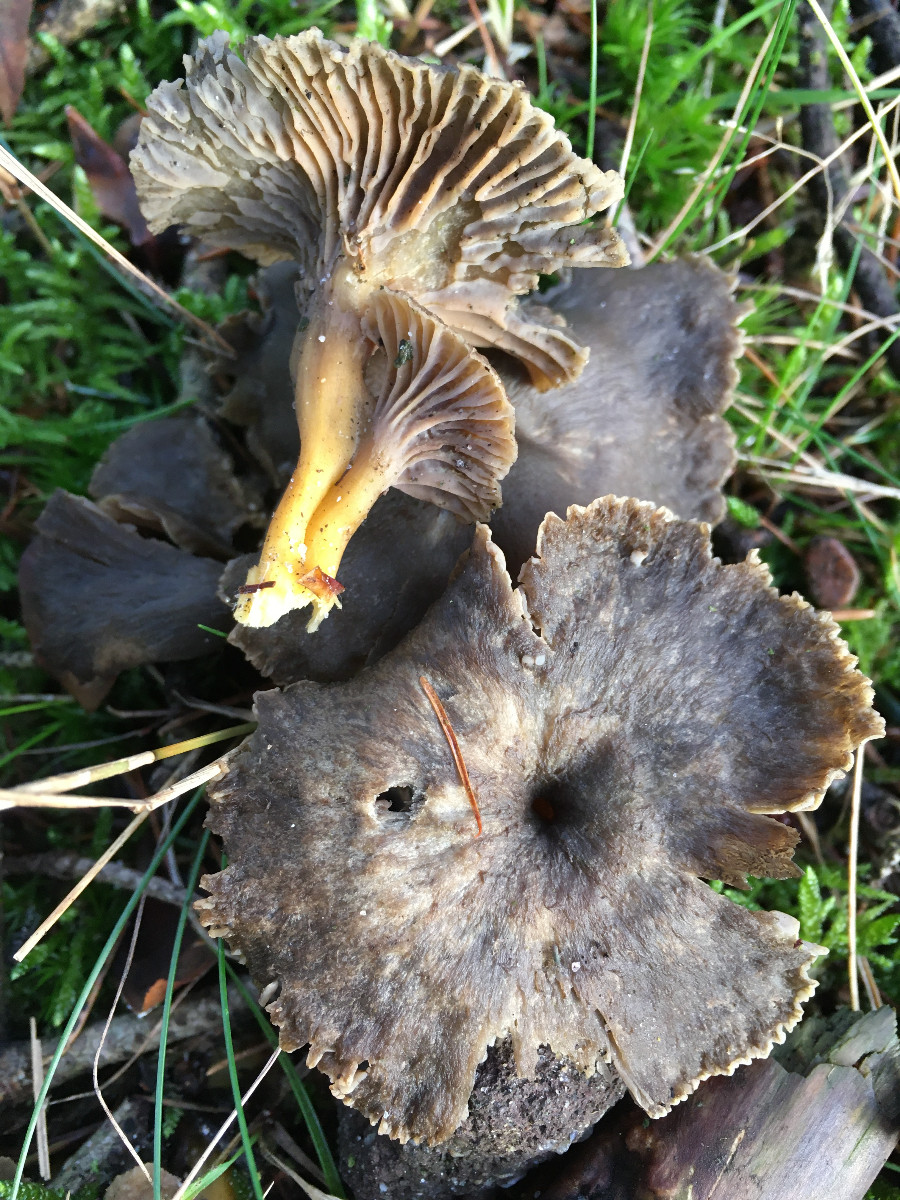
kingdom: Fungi
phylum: Basidiomycota
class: Agaricomycetes
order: Cantharellales
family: Hydnaceae
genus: Craterellus
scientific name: Craterellus tubaeformis
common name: tragt-kantarel
